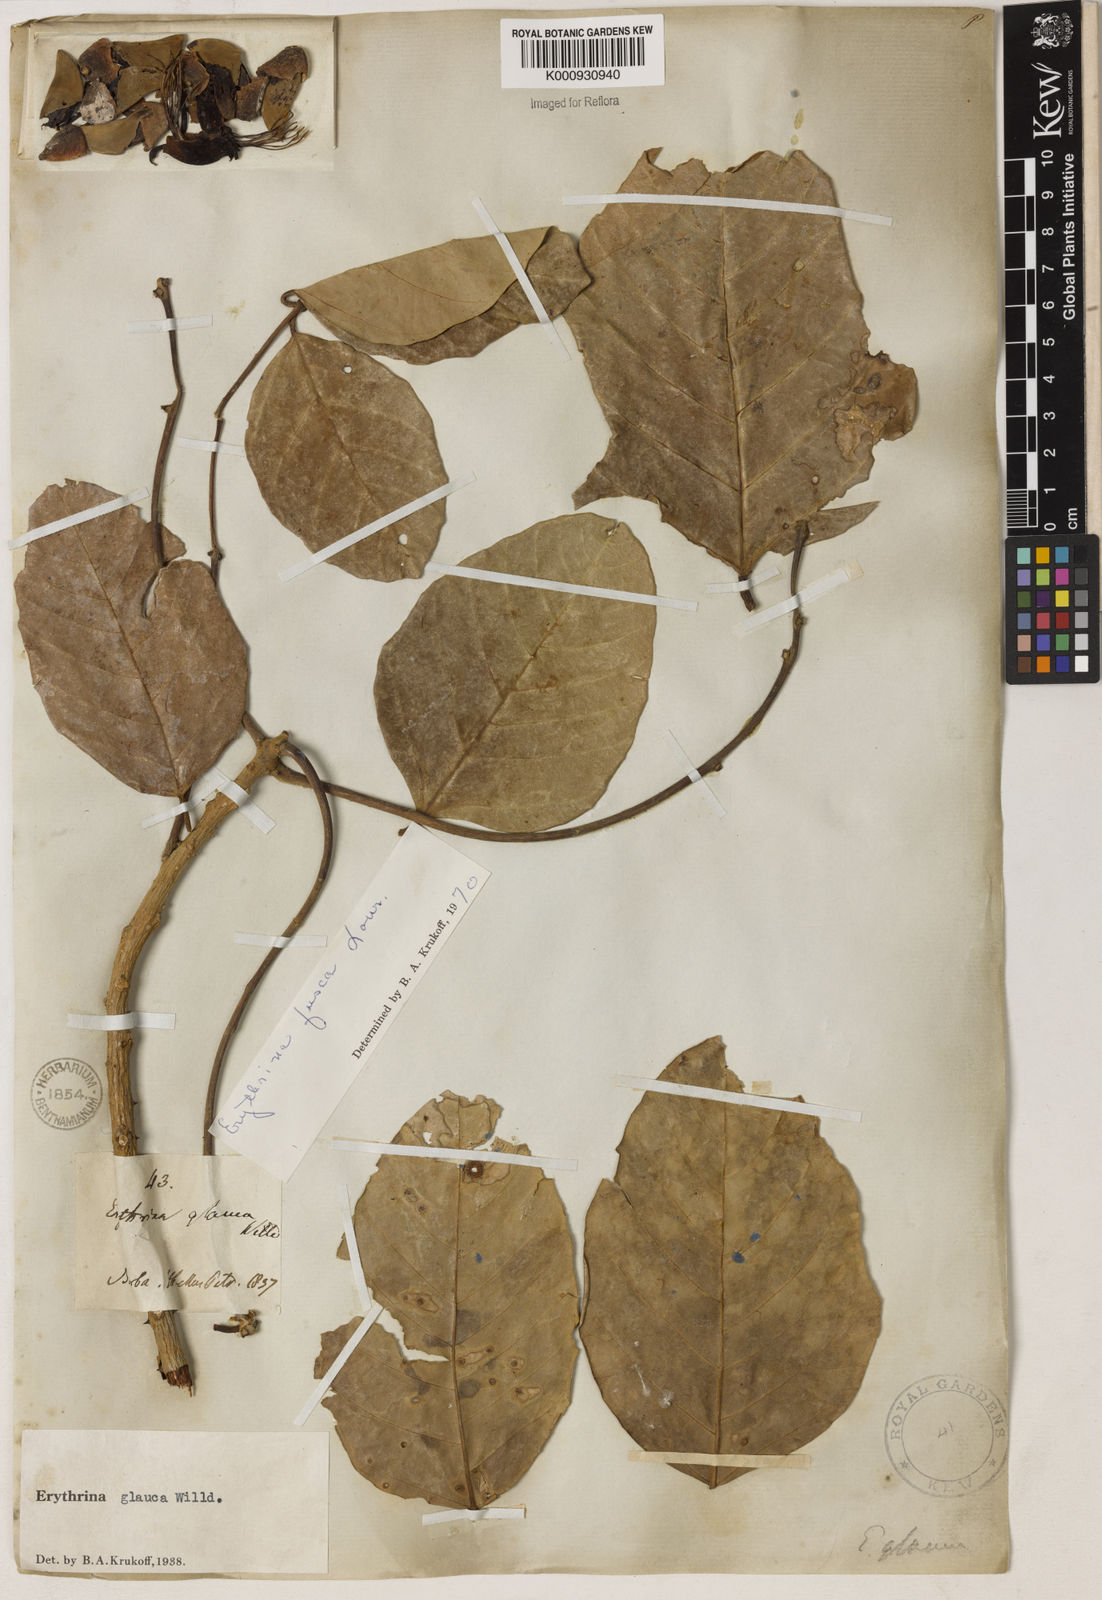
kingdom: Plantae
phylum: Tracheophyta
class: Magnoliopsida
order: Fabales
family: Fabaceae
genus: Erythrina
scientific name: Erythrina fusca
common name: Coral-bean
